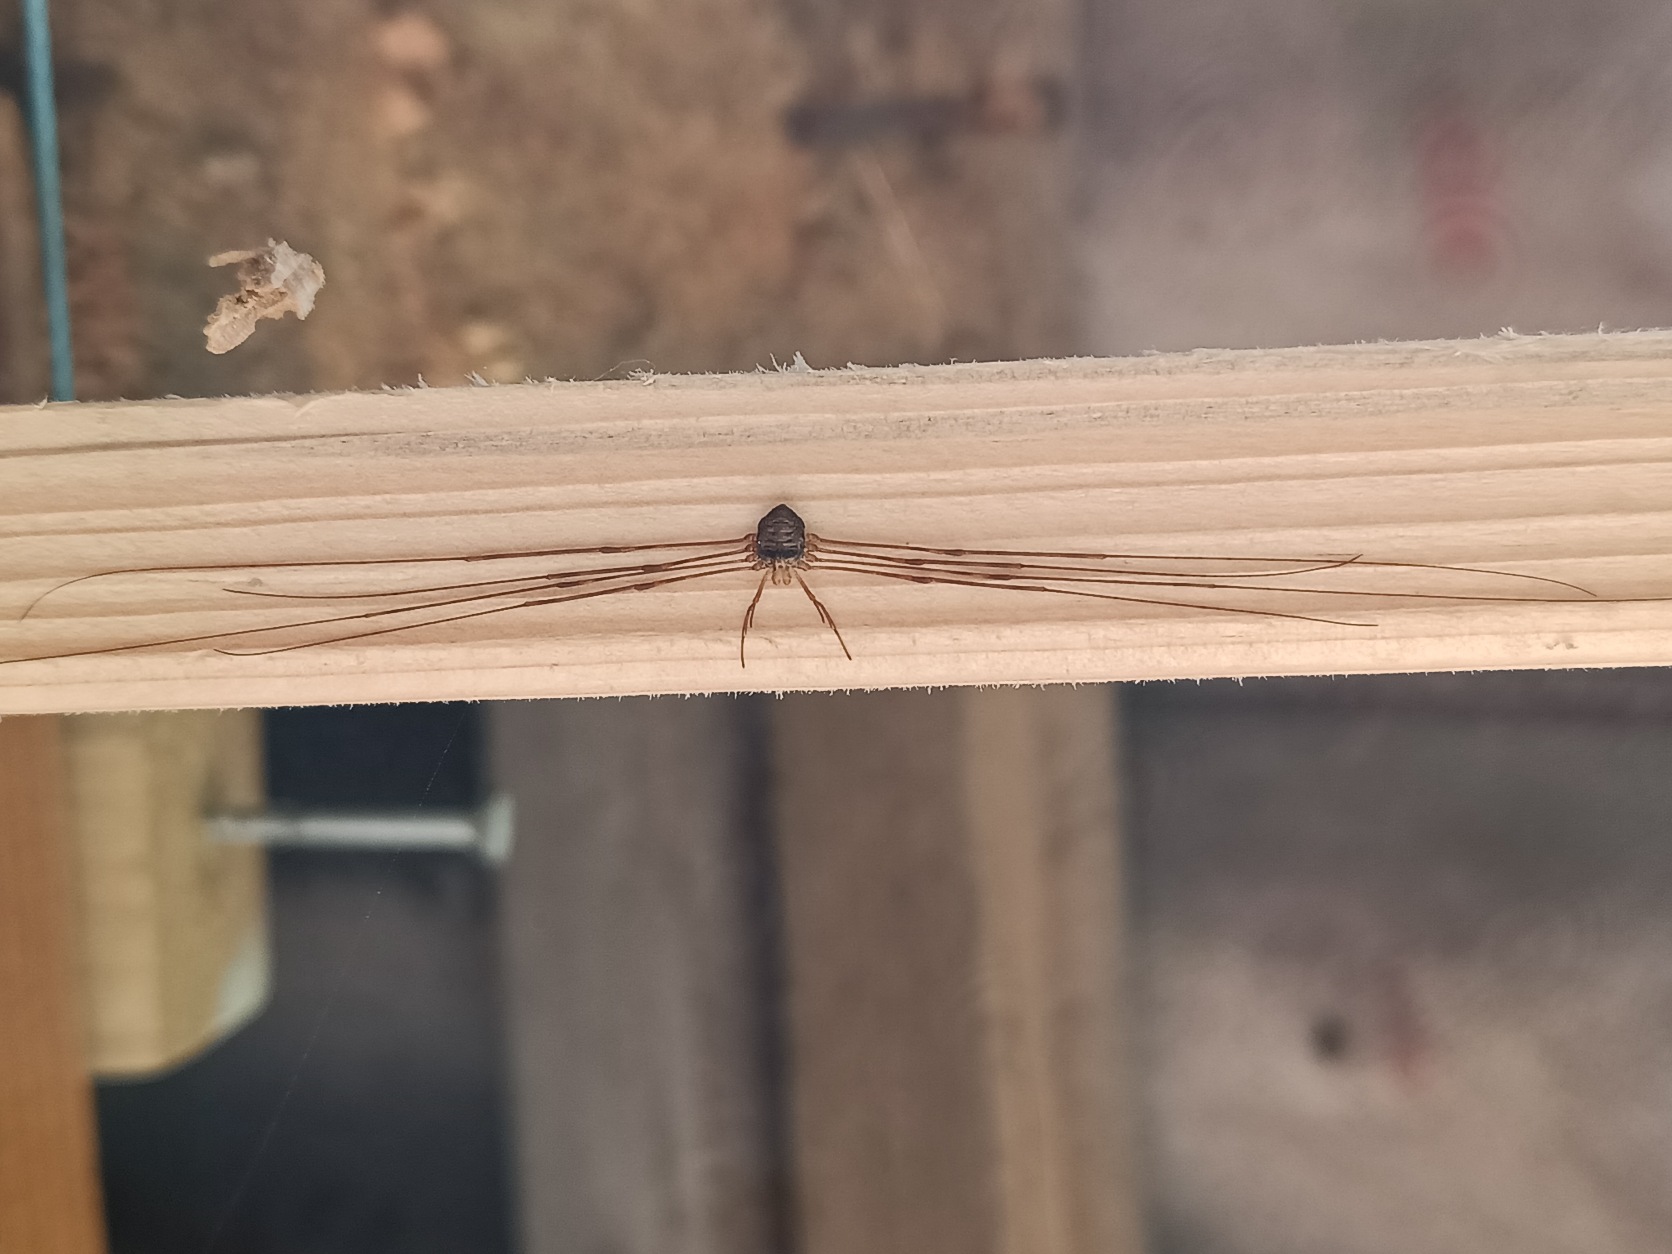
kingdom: Animalia
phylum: Arthropoda
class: Arachnida
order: Opiliones
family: Phalangiidae
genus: Dicranopalpus
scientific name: Dicranopalpus ramosus
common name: Gaffelmejer
